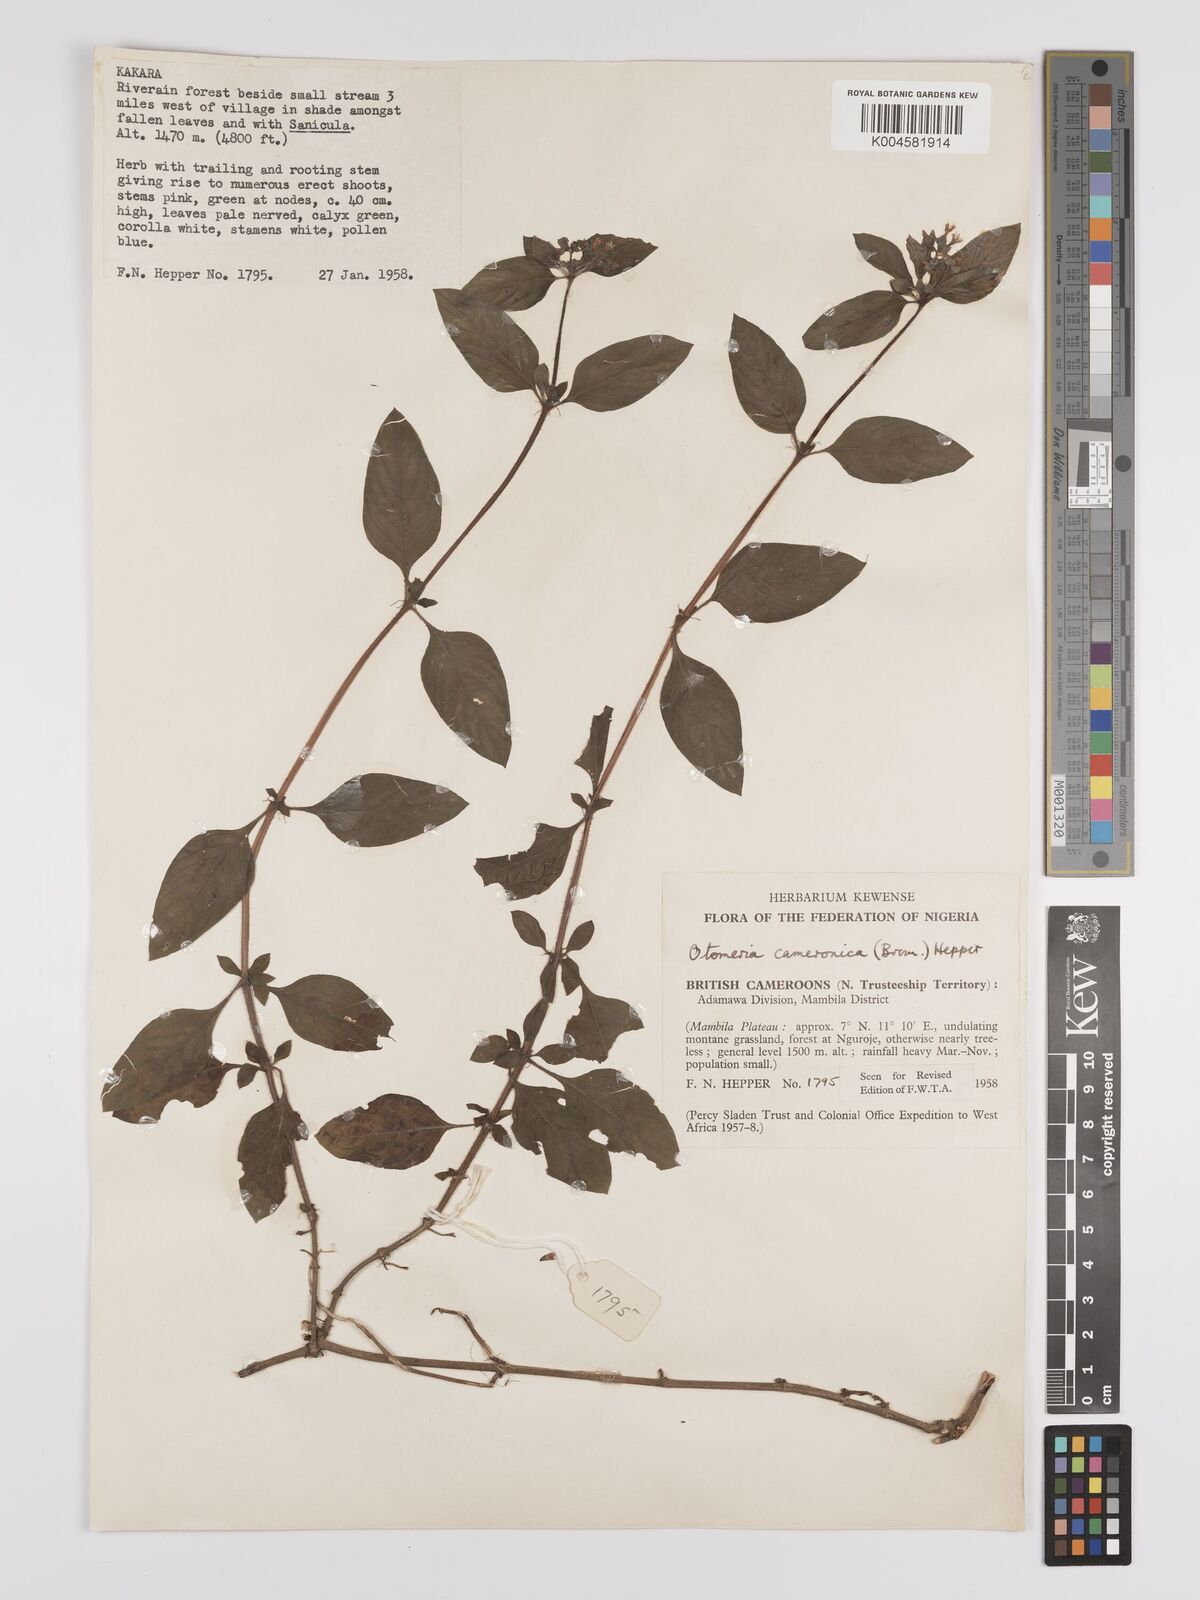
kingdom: Plantae
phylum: Tracheophyta
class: Magnoliopsida
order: Gentianales
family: Rubiaceae
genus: Otomeria
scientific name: Otomeria cameronica
